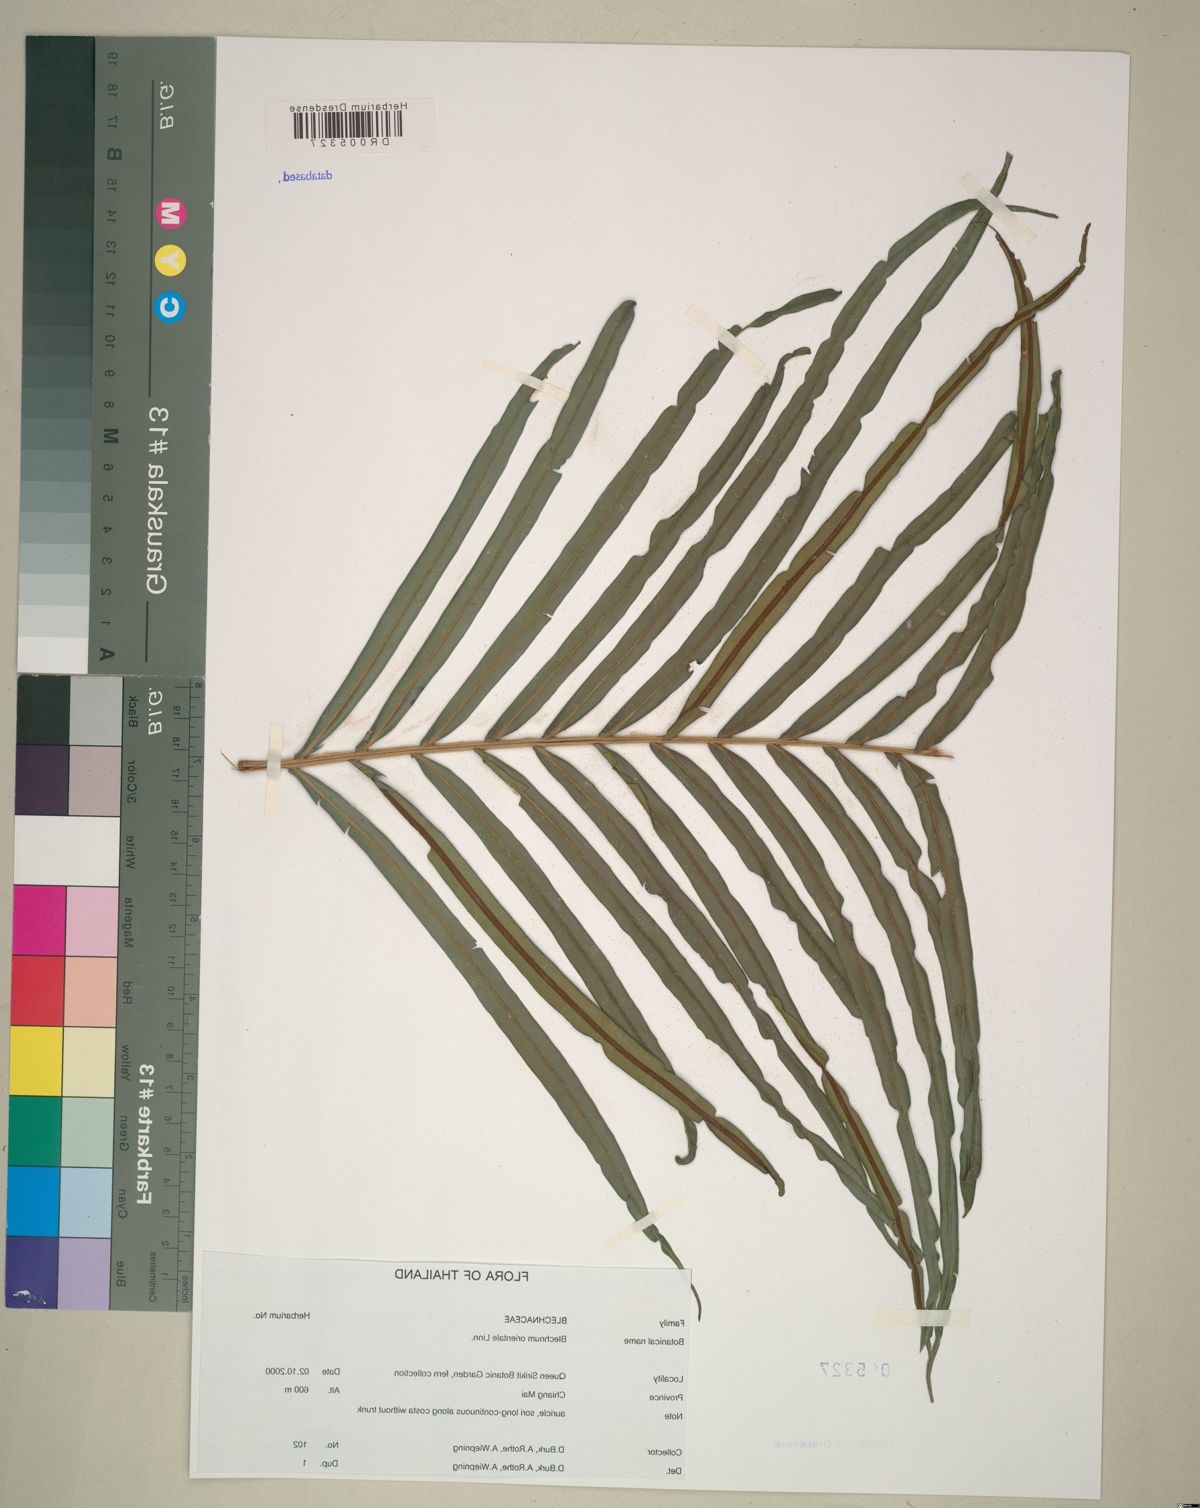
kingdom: Plantae
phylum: Tracheophyta
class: Polypodiopsida
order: Polypodiales
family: Blechnaceae
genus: Blechnopsis
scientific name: Blechnopsis orientalis
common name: Oriental blechnum
